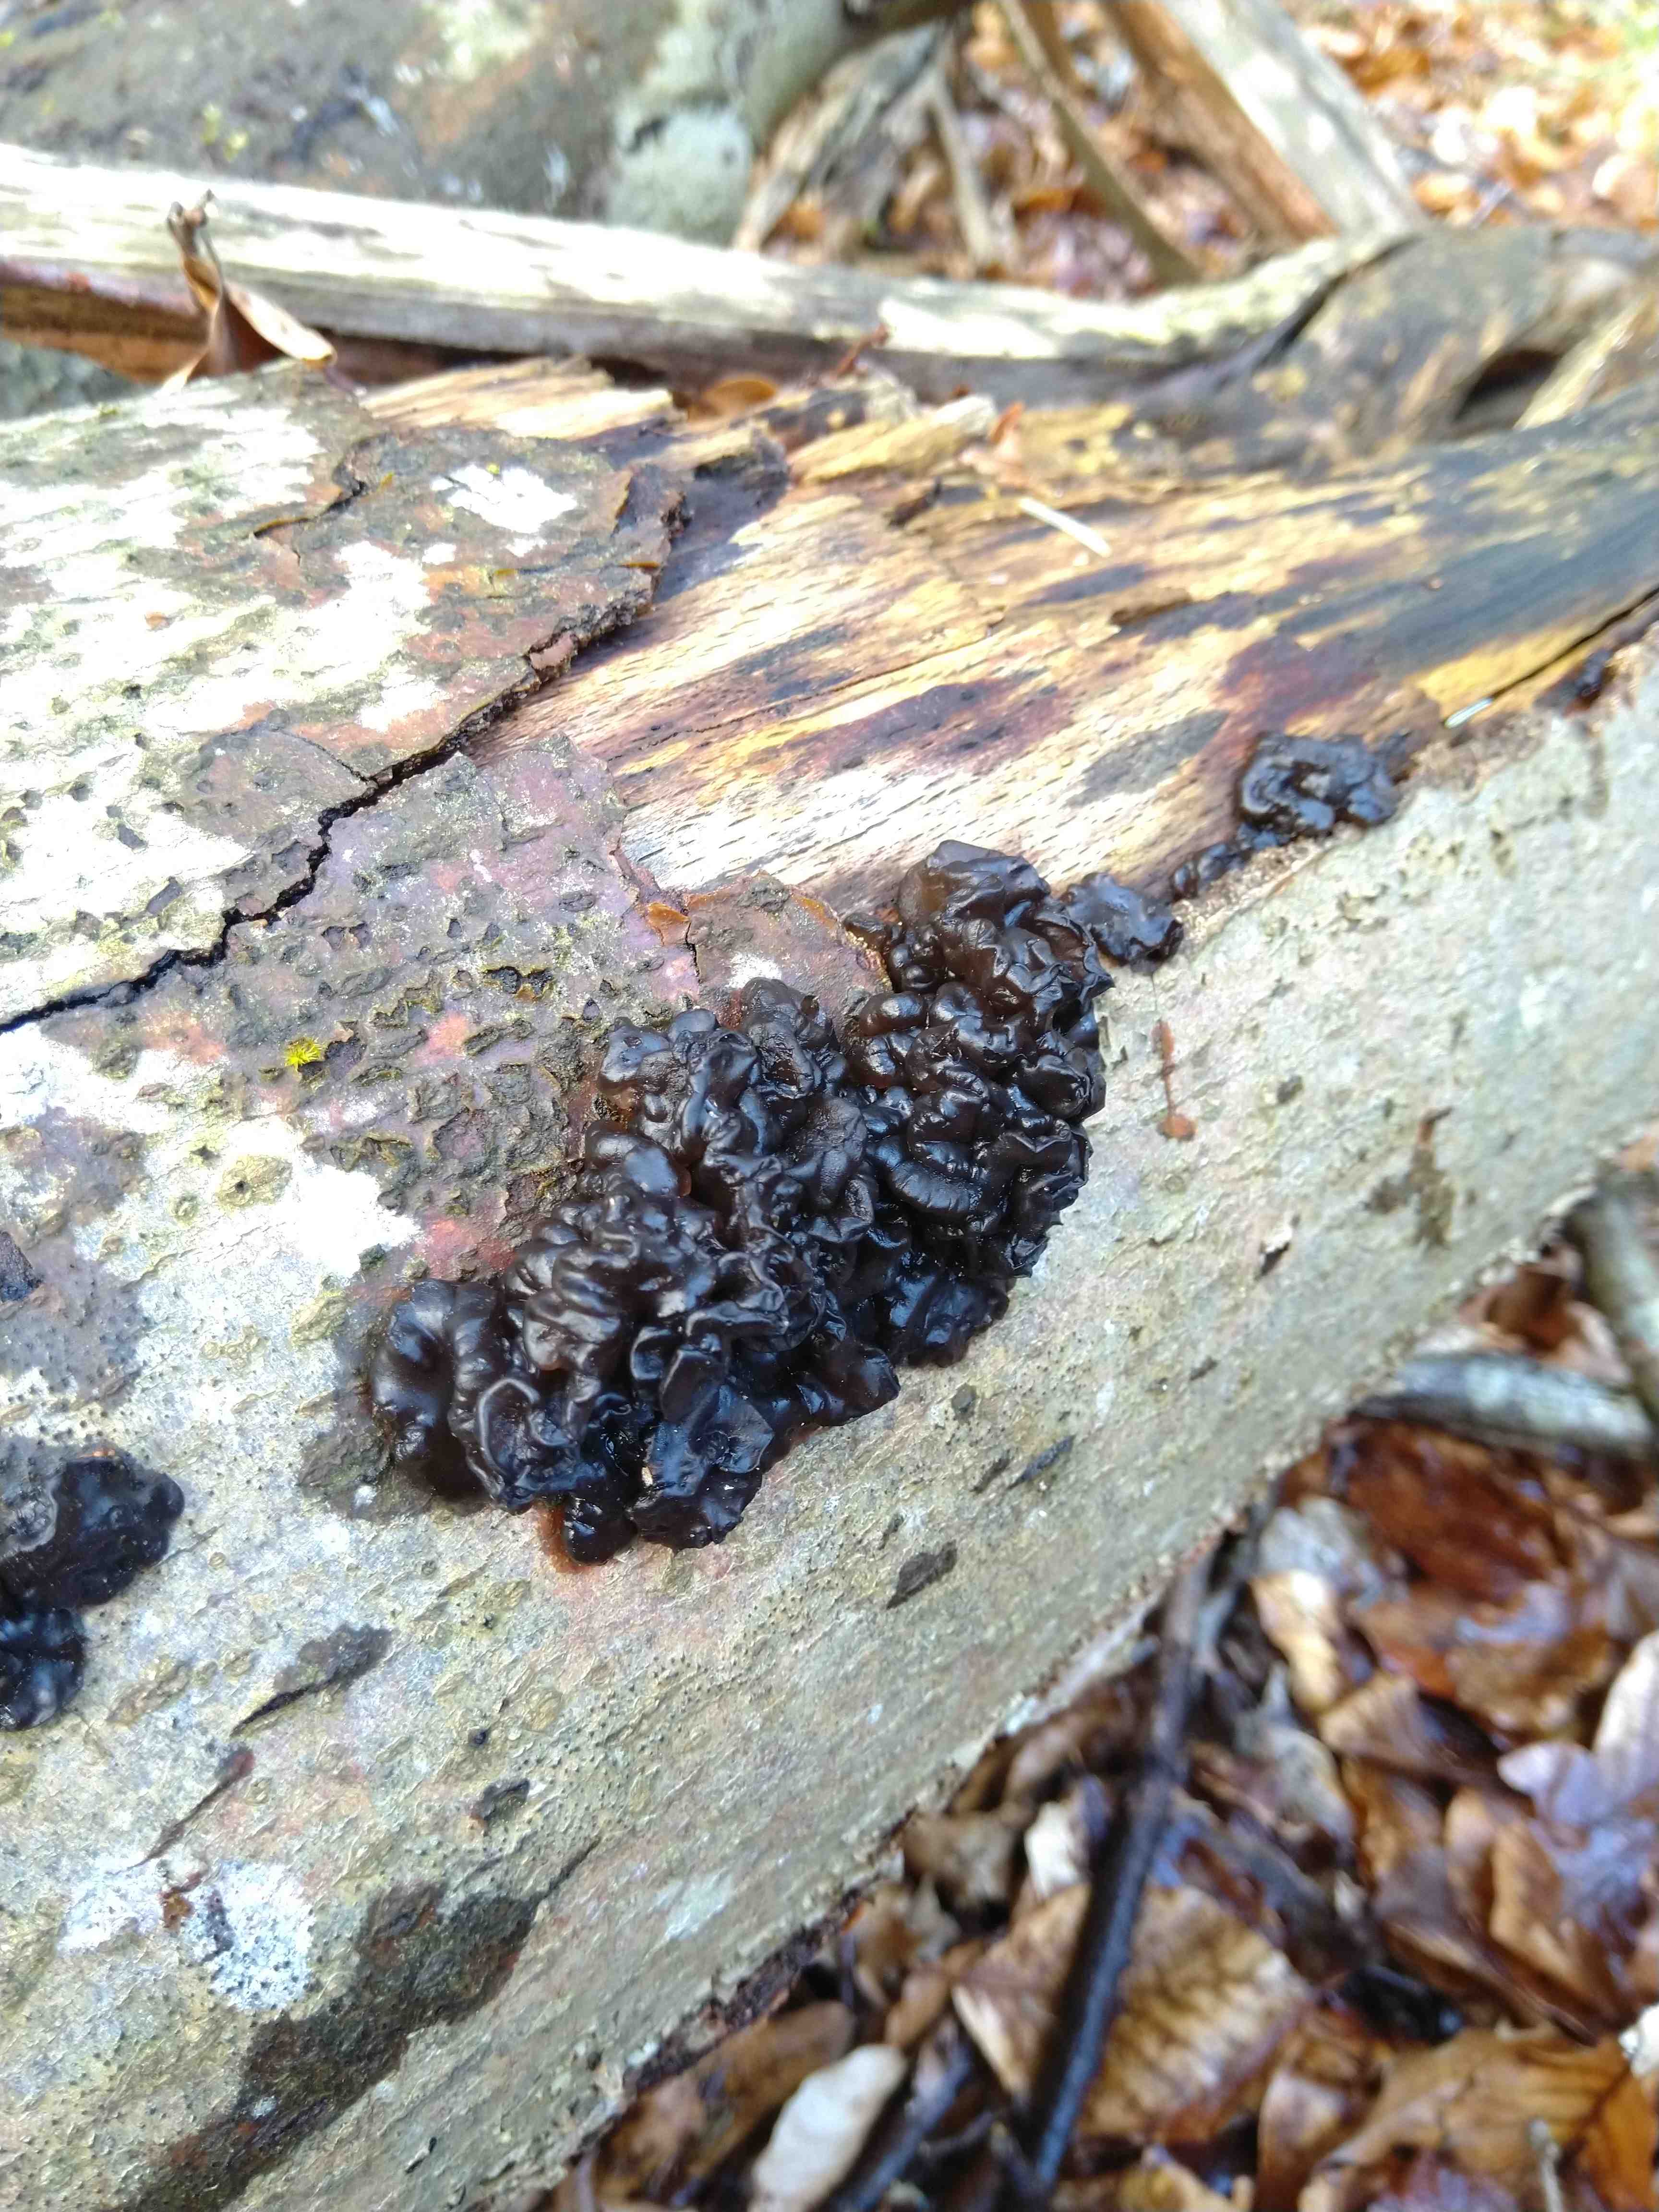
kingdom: Fungi
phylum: Basidiomycota
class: Agaricomycetes
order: Auriculariales
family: Auriculariaceae
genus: Exidia
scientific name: Exidia nigricans
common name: almindelig bævretop
